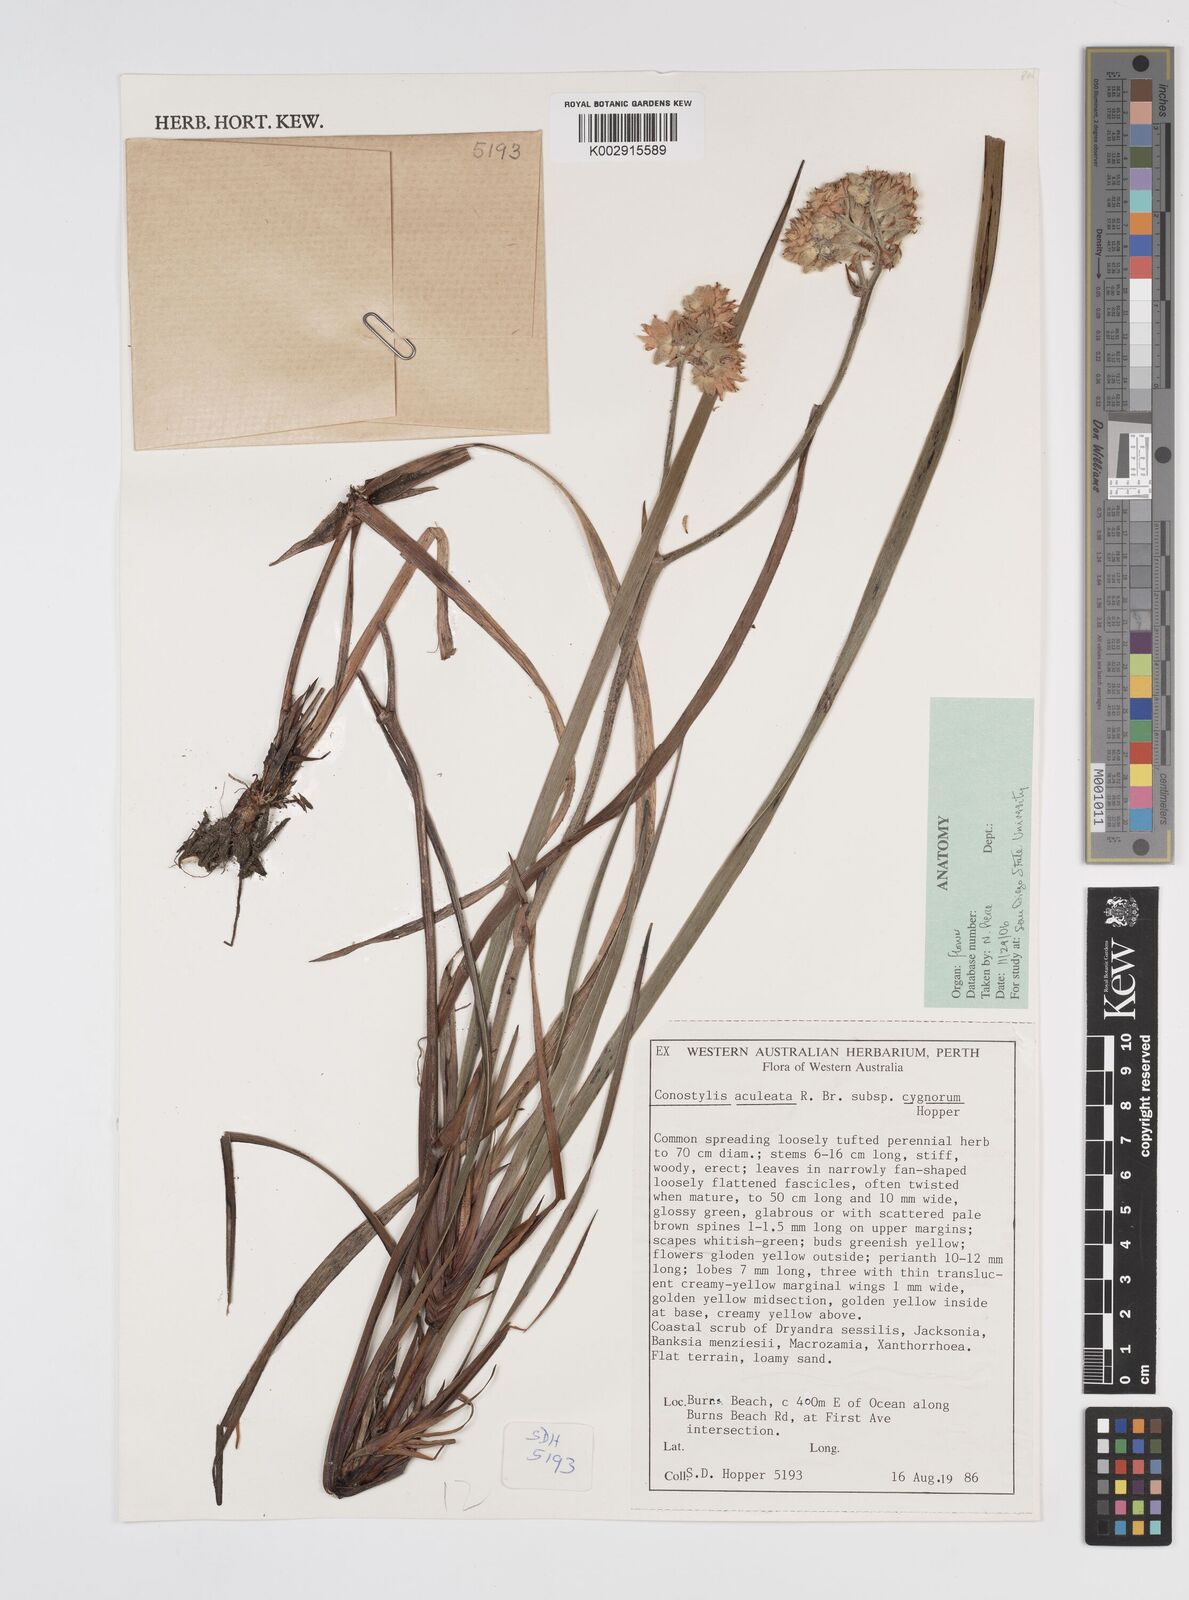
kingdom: Plantae
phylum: Tracheophyta
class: Liliopsida
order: Commelinales
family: Haemodoraceae
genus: Conostylis
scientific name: Conostylis aculeata
